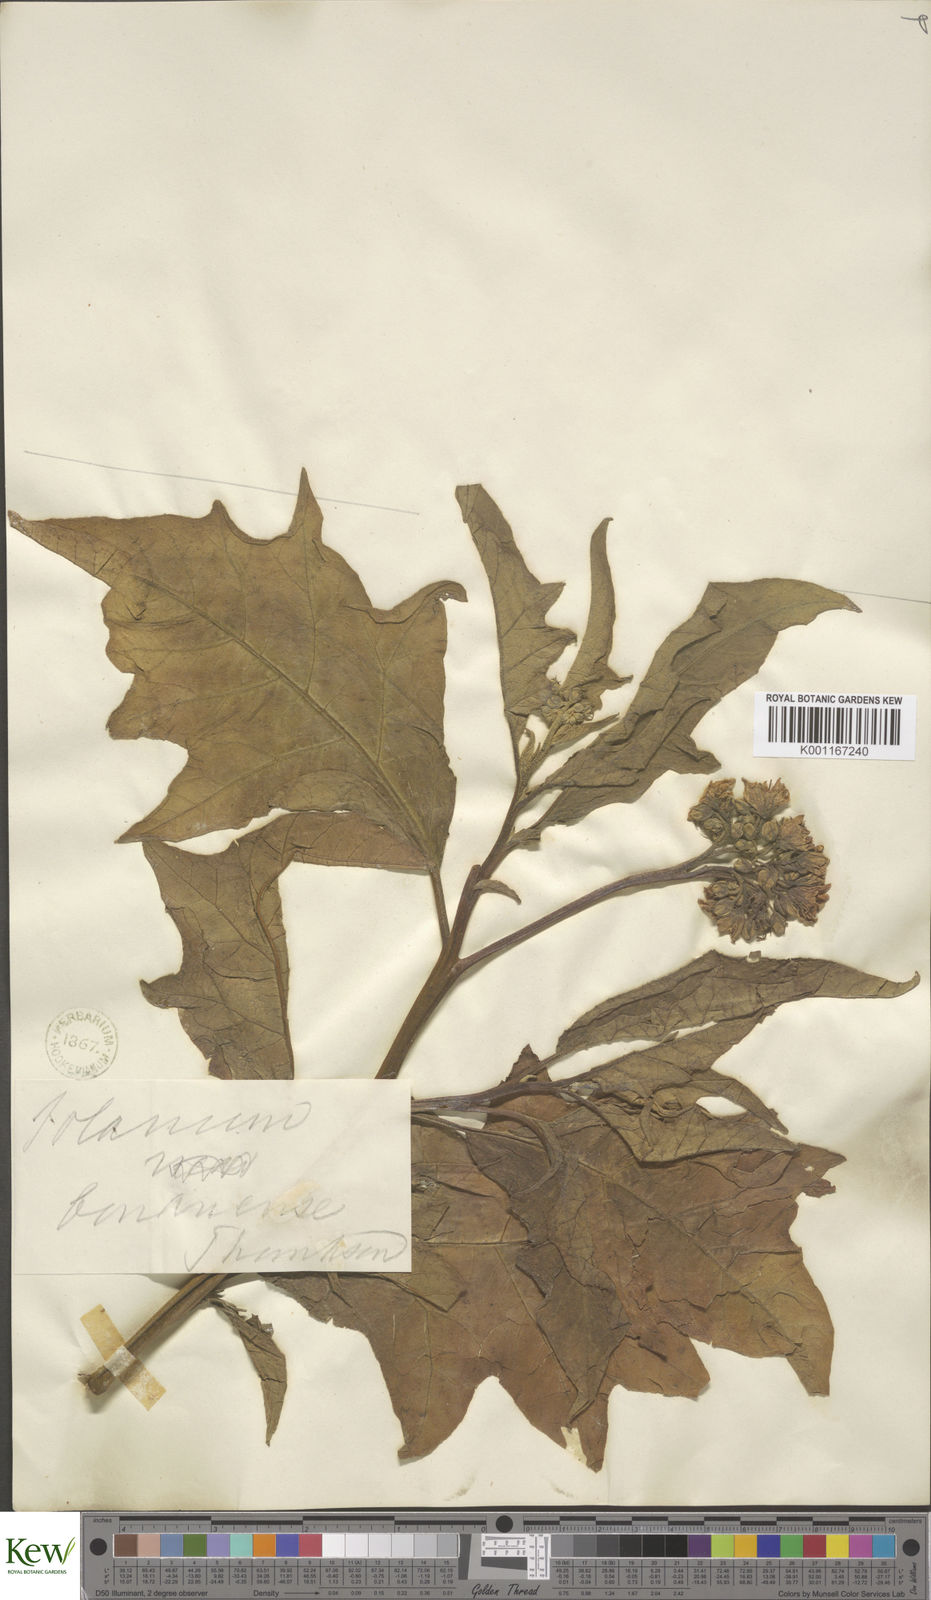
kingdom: Plantae
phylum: Tracheophyta
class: Magnoliopsida
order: Solanales
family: Solanaceae
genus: Solanum
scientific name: Solanum bonariense
